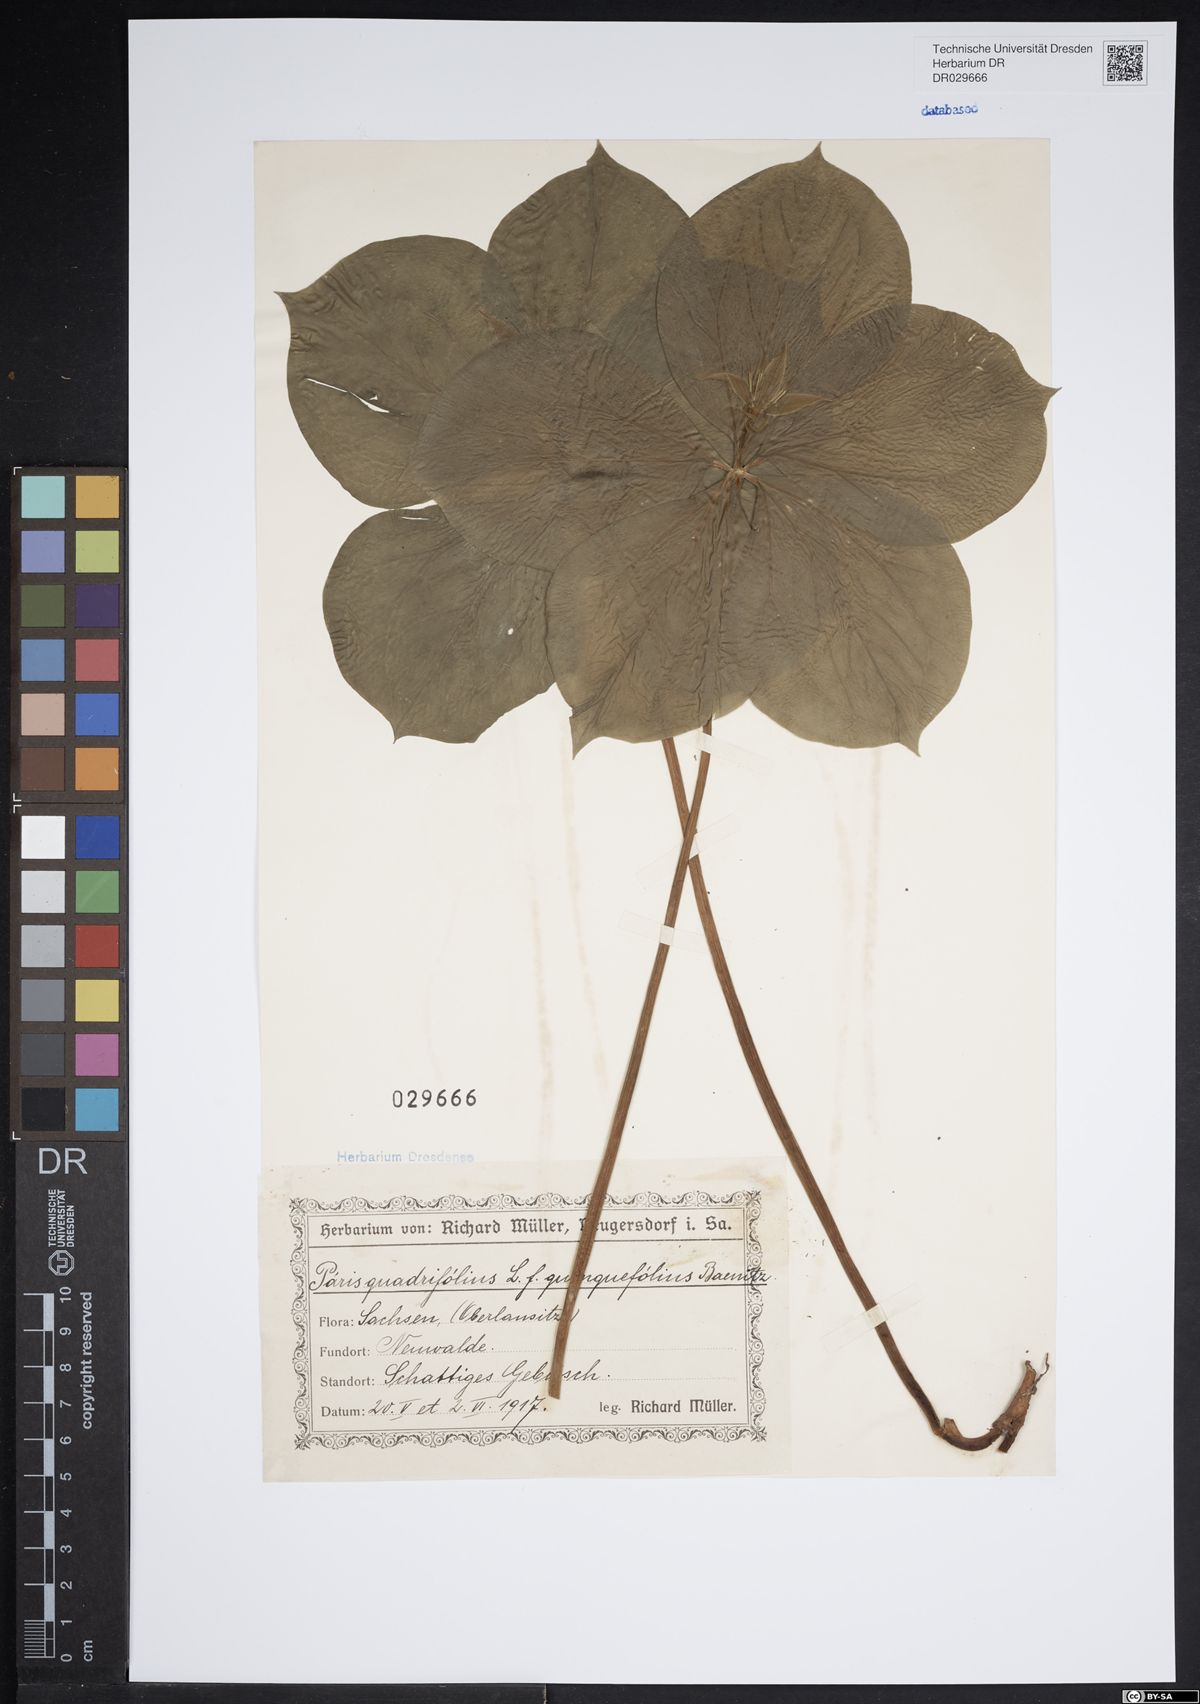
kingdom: Plantae
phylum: Tracheophyta
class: Liliopsida
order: Liliales
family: Melanthiaceae
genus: Paris
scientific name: Paris quadrifolia
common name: Herb-paris
